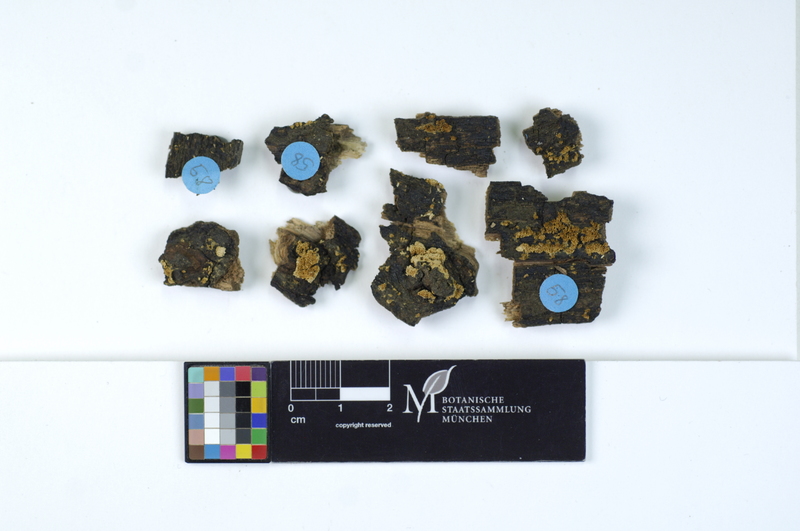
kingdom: Fungi
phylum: Basidiomycota
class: Agaricomycetes
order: Hymenochaetales
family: Schizoporaceae
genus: Schizopora
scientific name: Schizopora paradoxa
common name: Split porecrust
